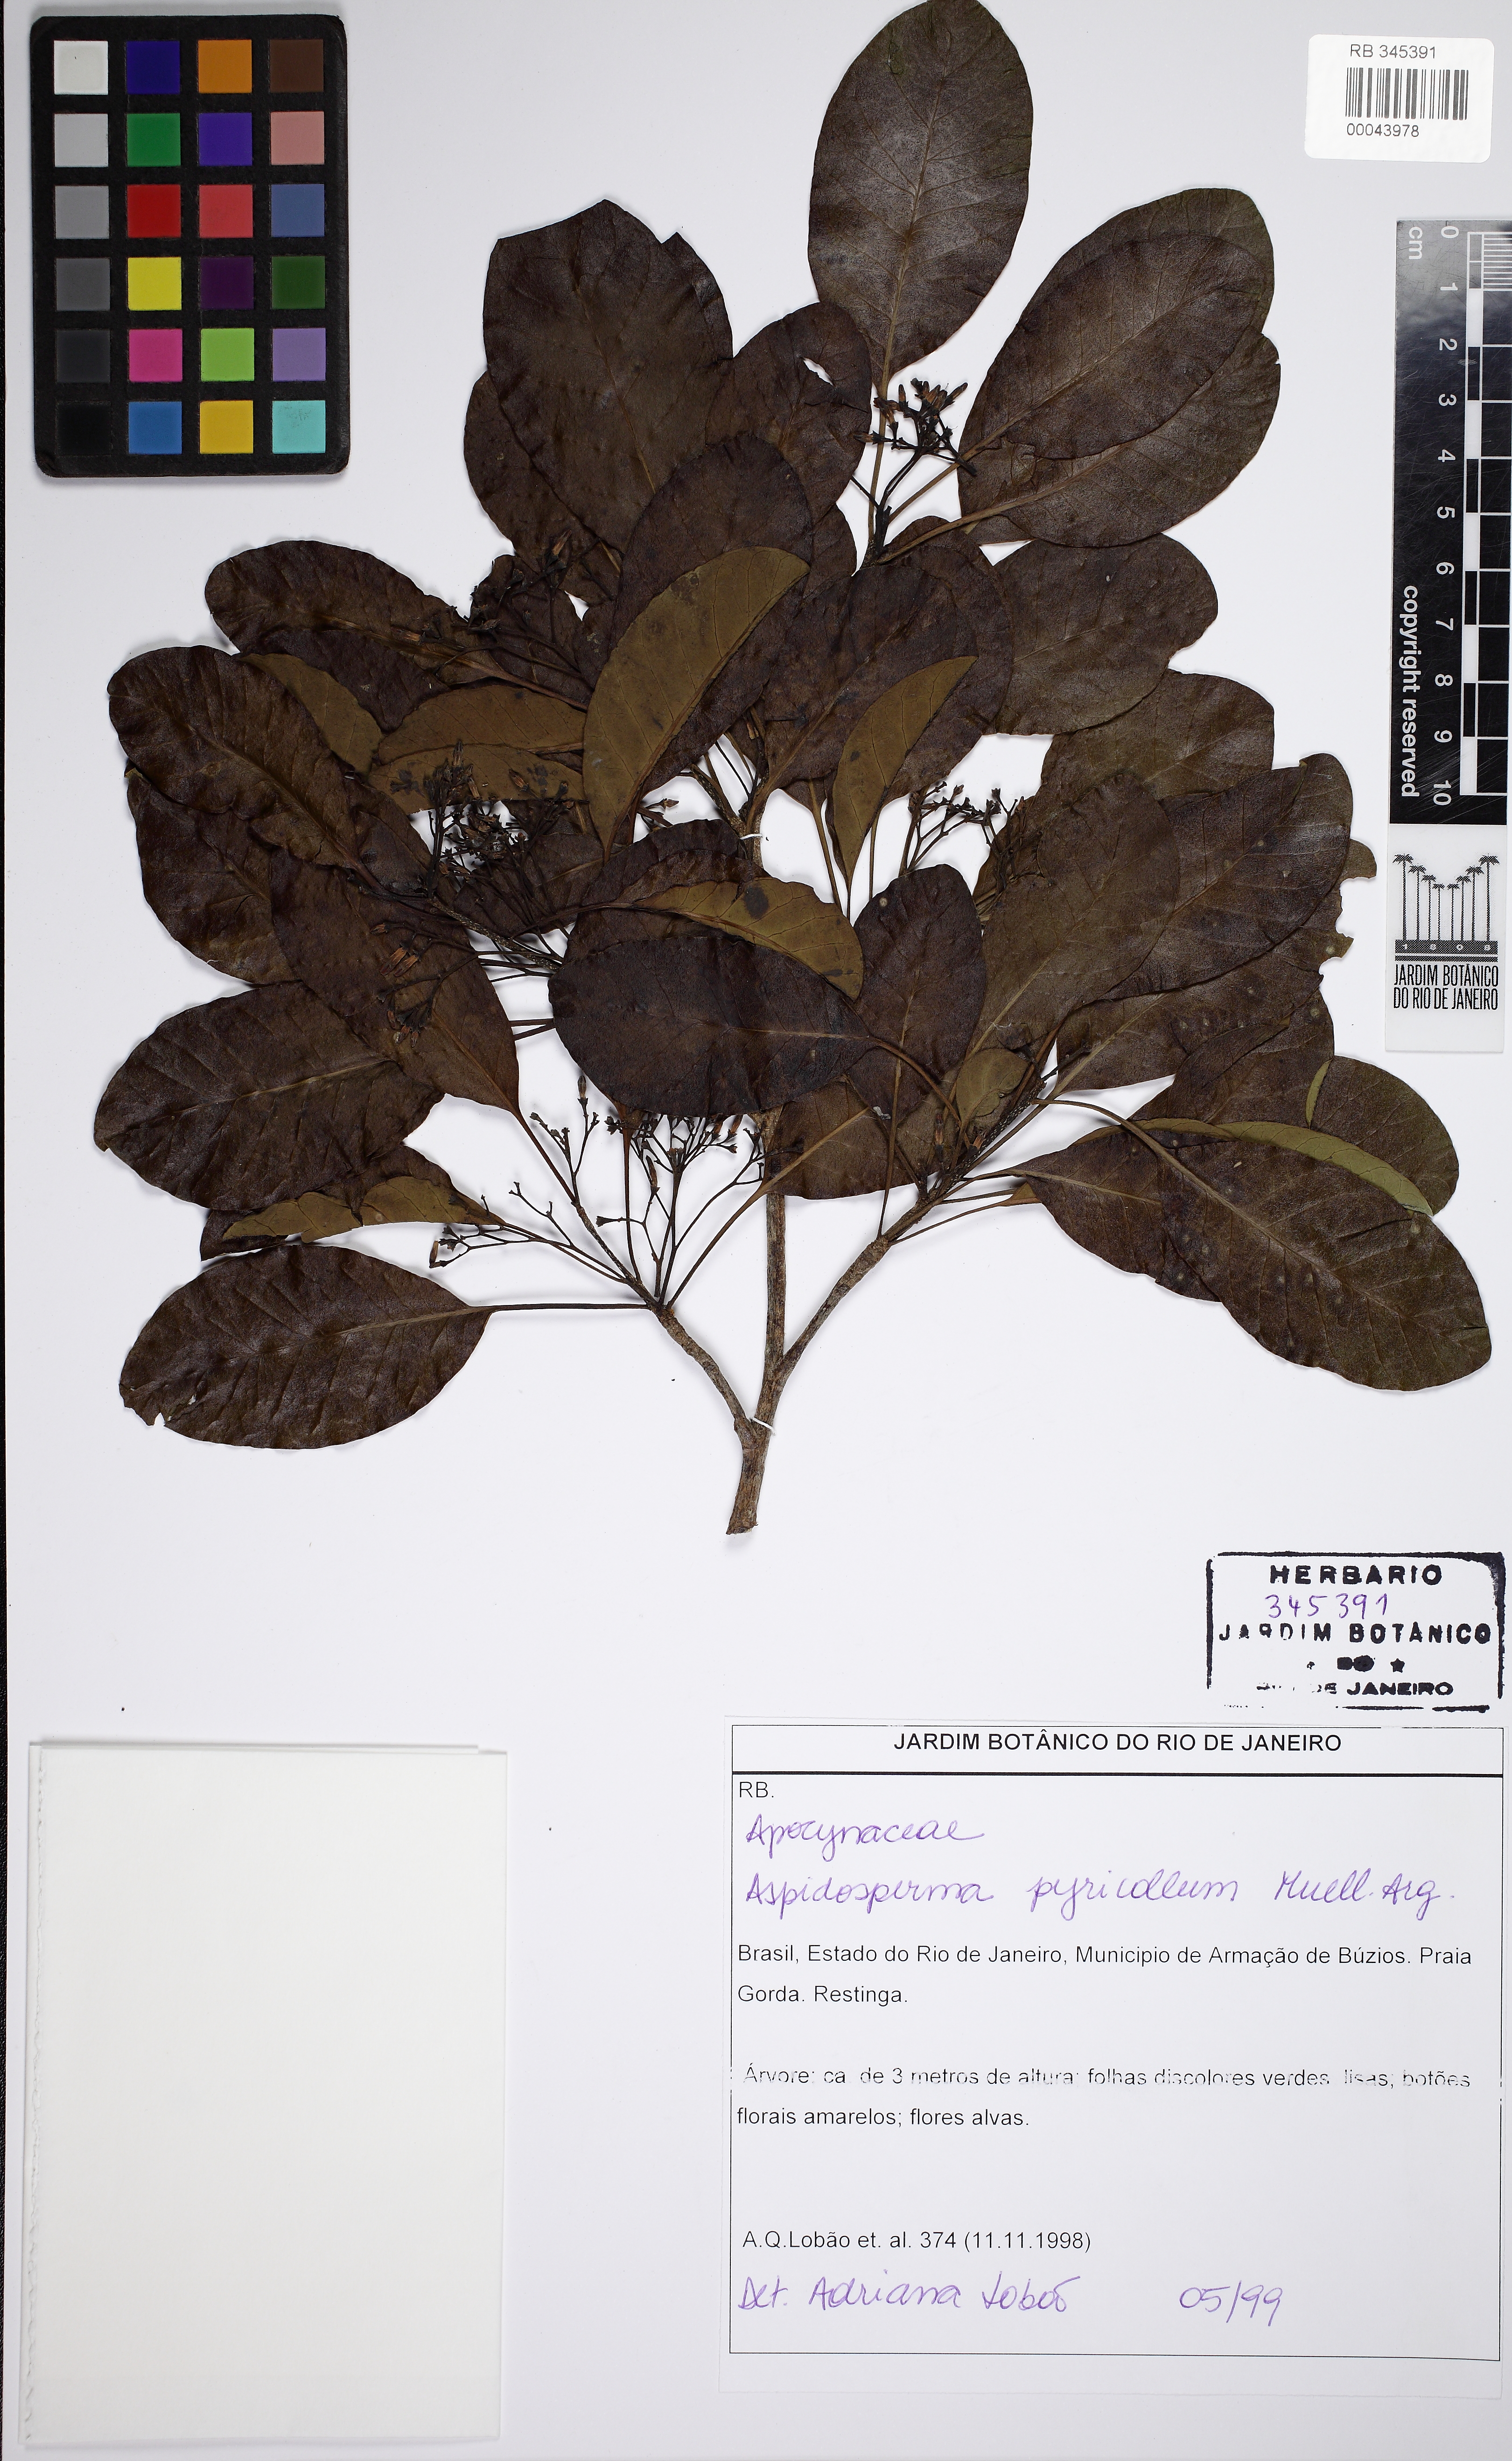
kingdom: Plantae
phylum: Tracheophyta
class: Magnoliopsida
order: Gentianales
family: Apocynaceae
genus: Aspidosperma
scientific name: Aspidosperma pyricollum
